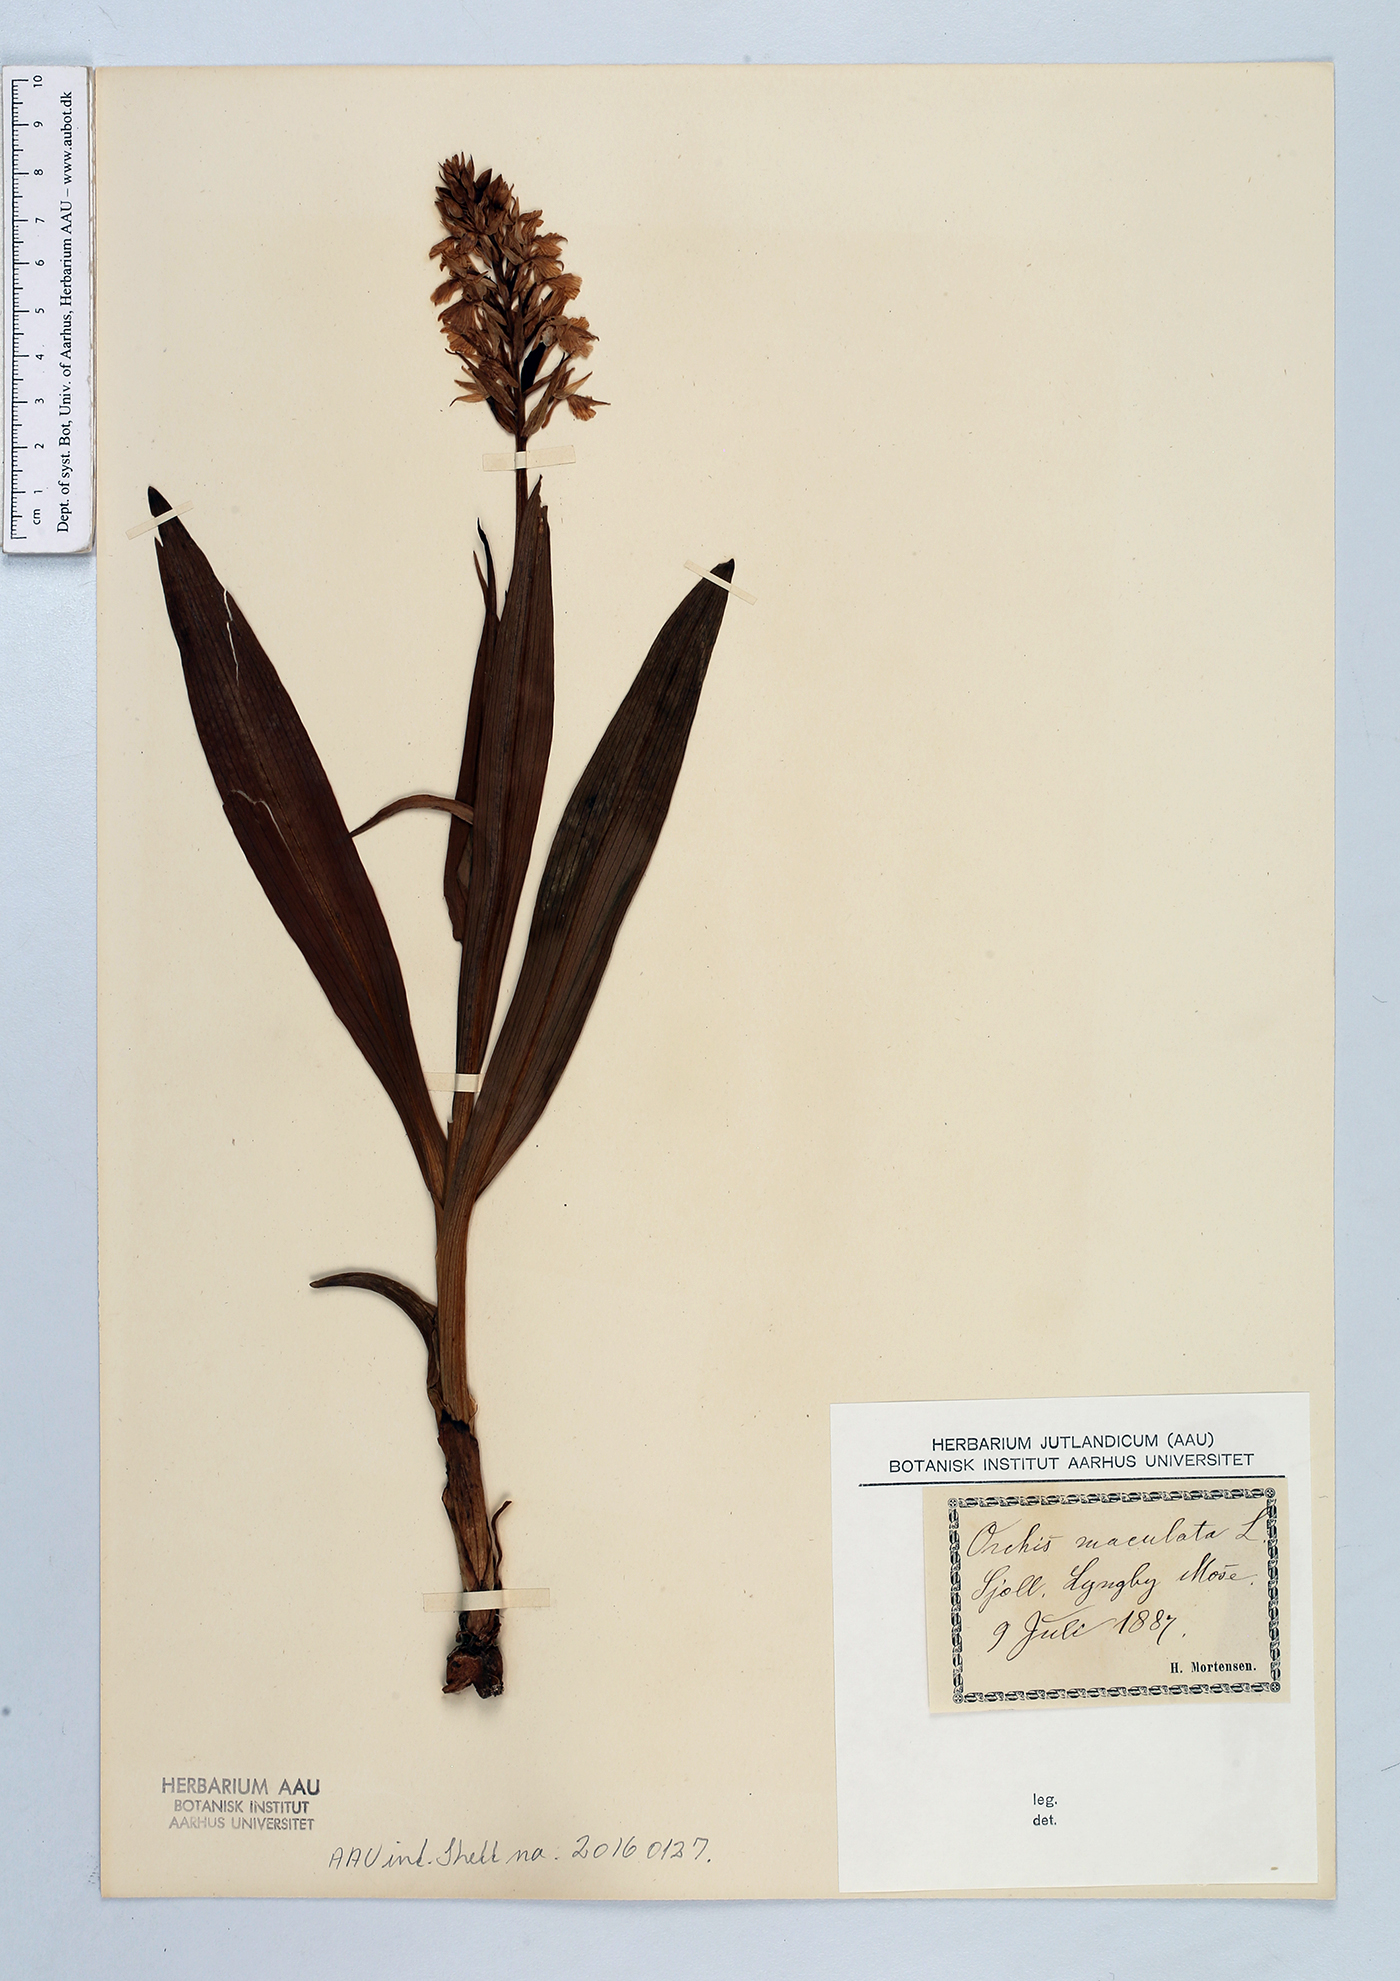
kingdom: Plantae
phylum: Tracheophyta
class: Liliopsida
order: Asparagales
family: Orchidaceae
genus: Dactylorhiza
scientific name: Dactylorhiza maculata
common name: Heath spotted-orchid
